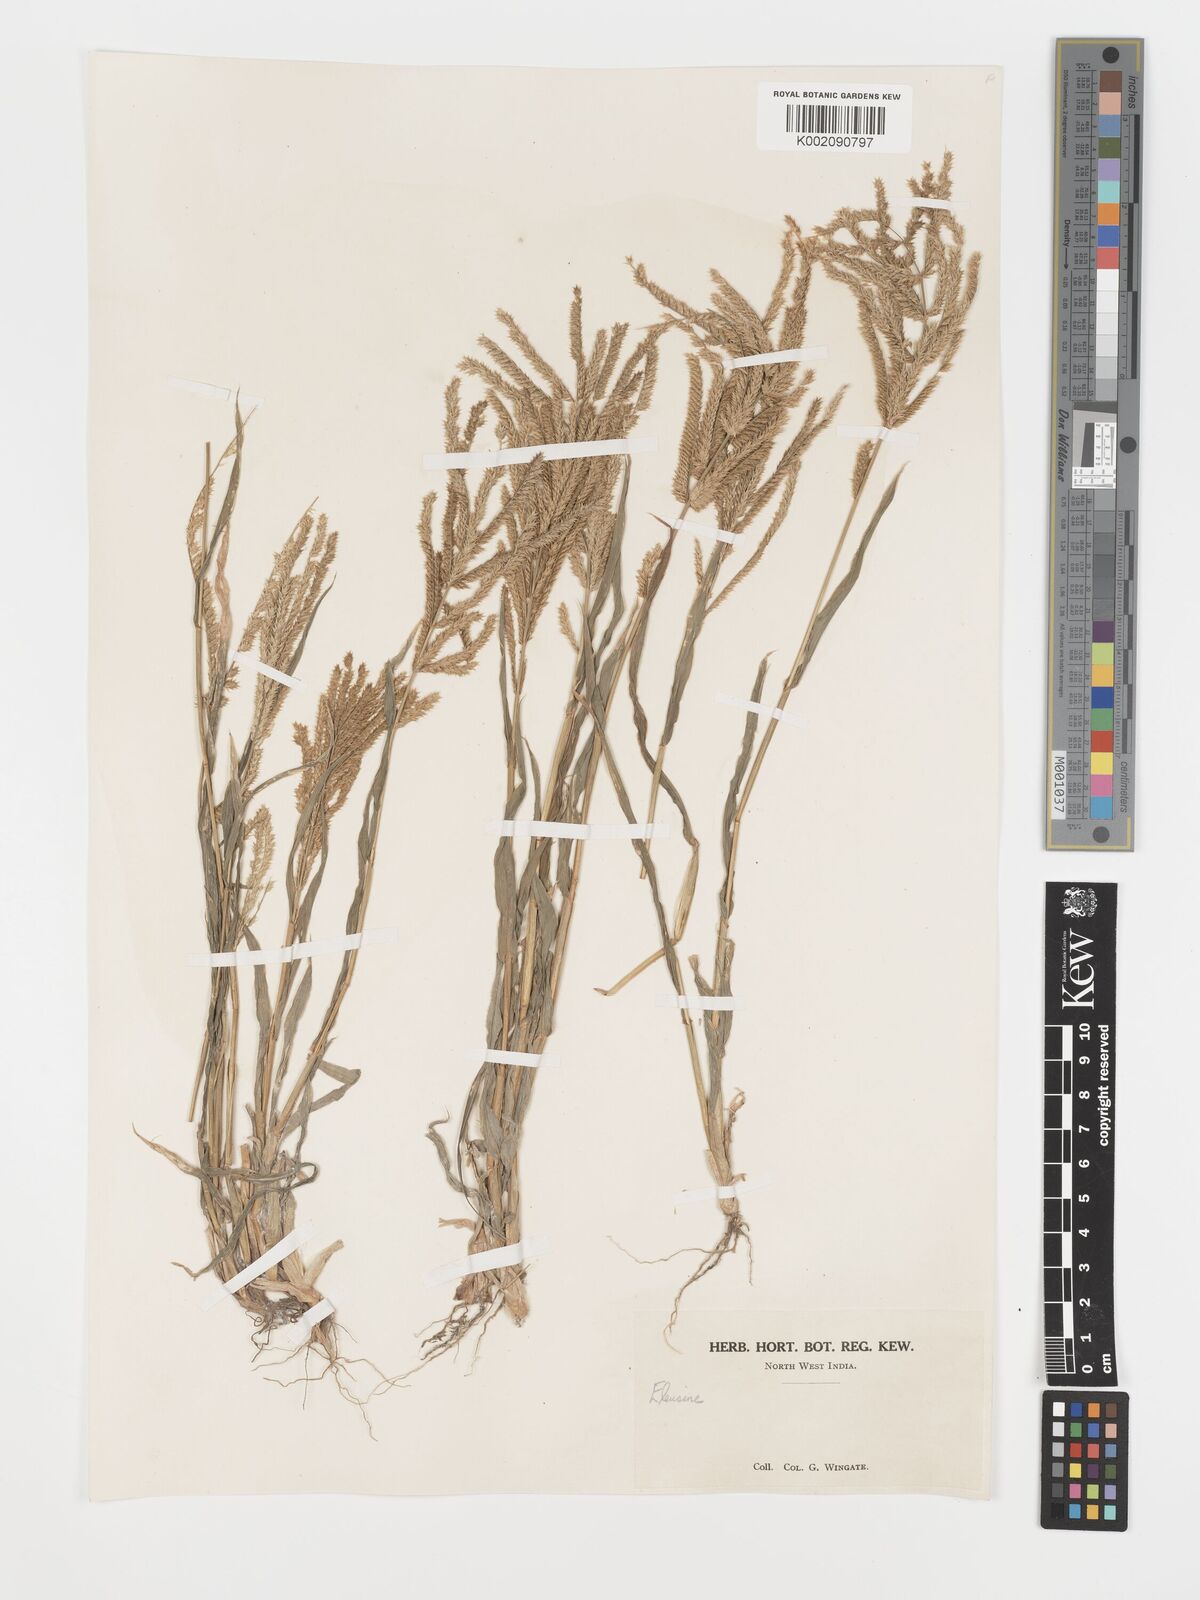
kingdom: Plantae
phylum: Tracheophyta
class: Liliopsida
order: Poales
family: Poaceae
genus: Acrachne
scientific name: Acrachne racemosa
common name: Goosegrass
